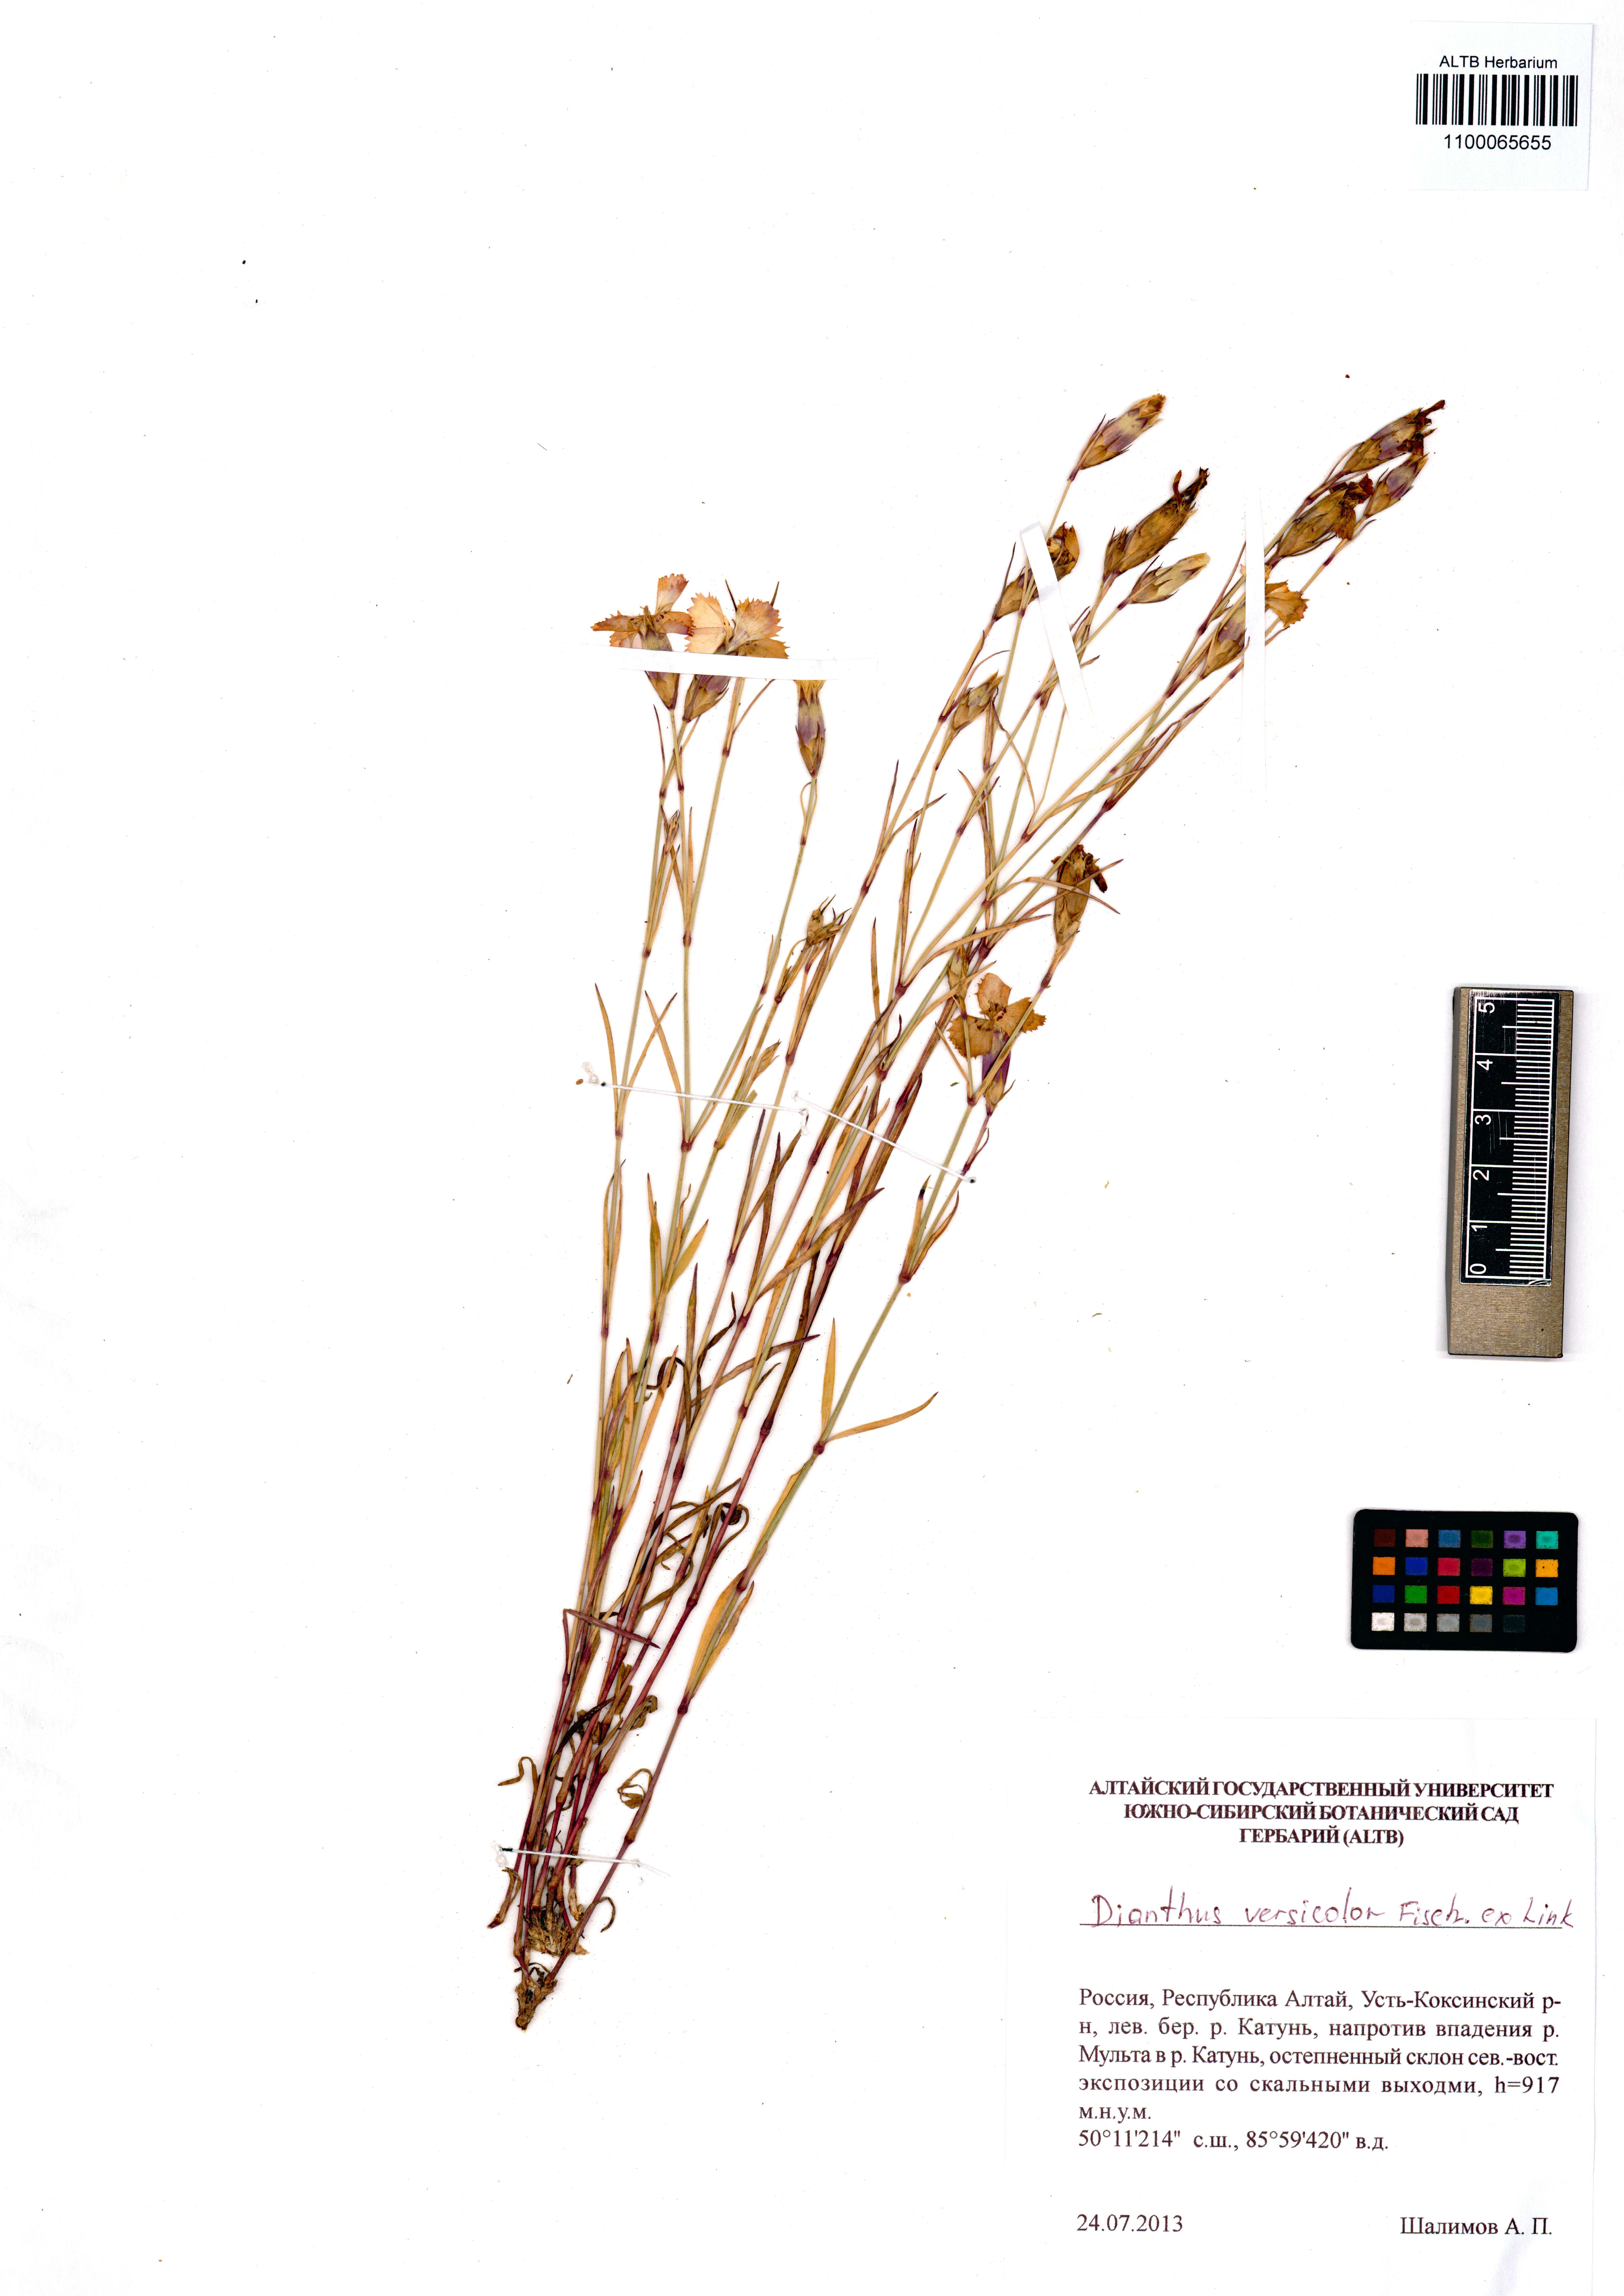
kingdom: Plantae
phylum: Tracheophyta
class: Magnoliopsida
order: Caryophyllales
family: Caryophyllaceae
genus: Dianthus
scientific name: Dianthus chinensis
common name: Rainbow pink
